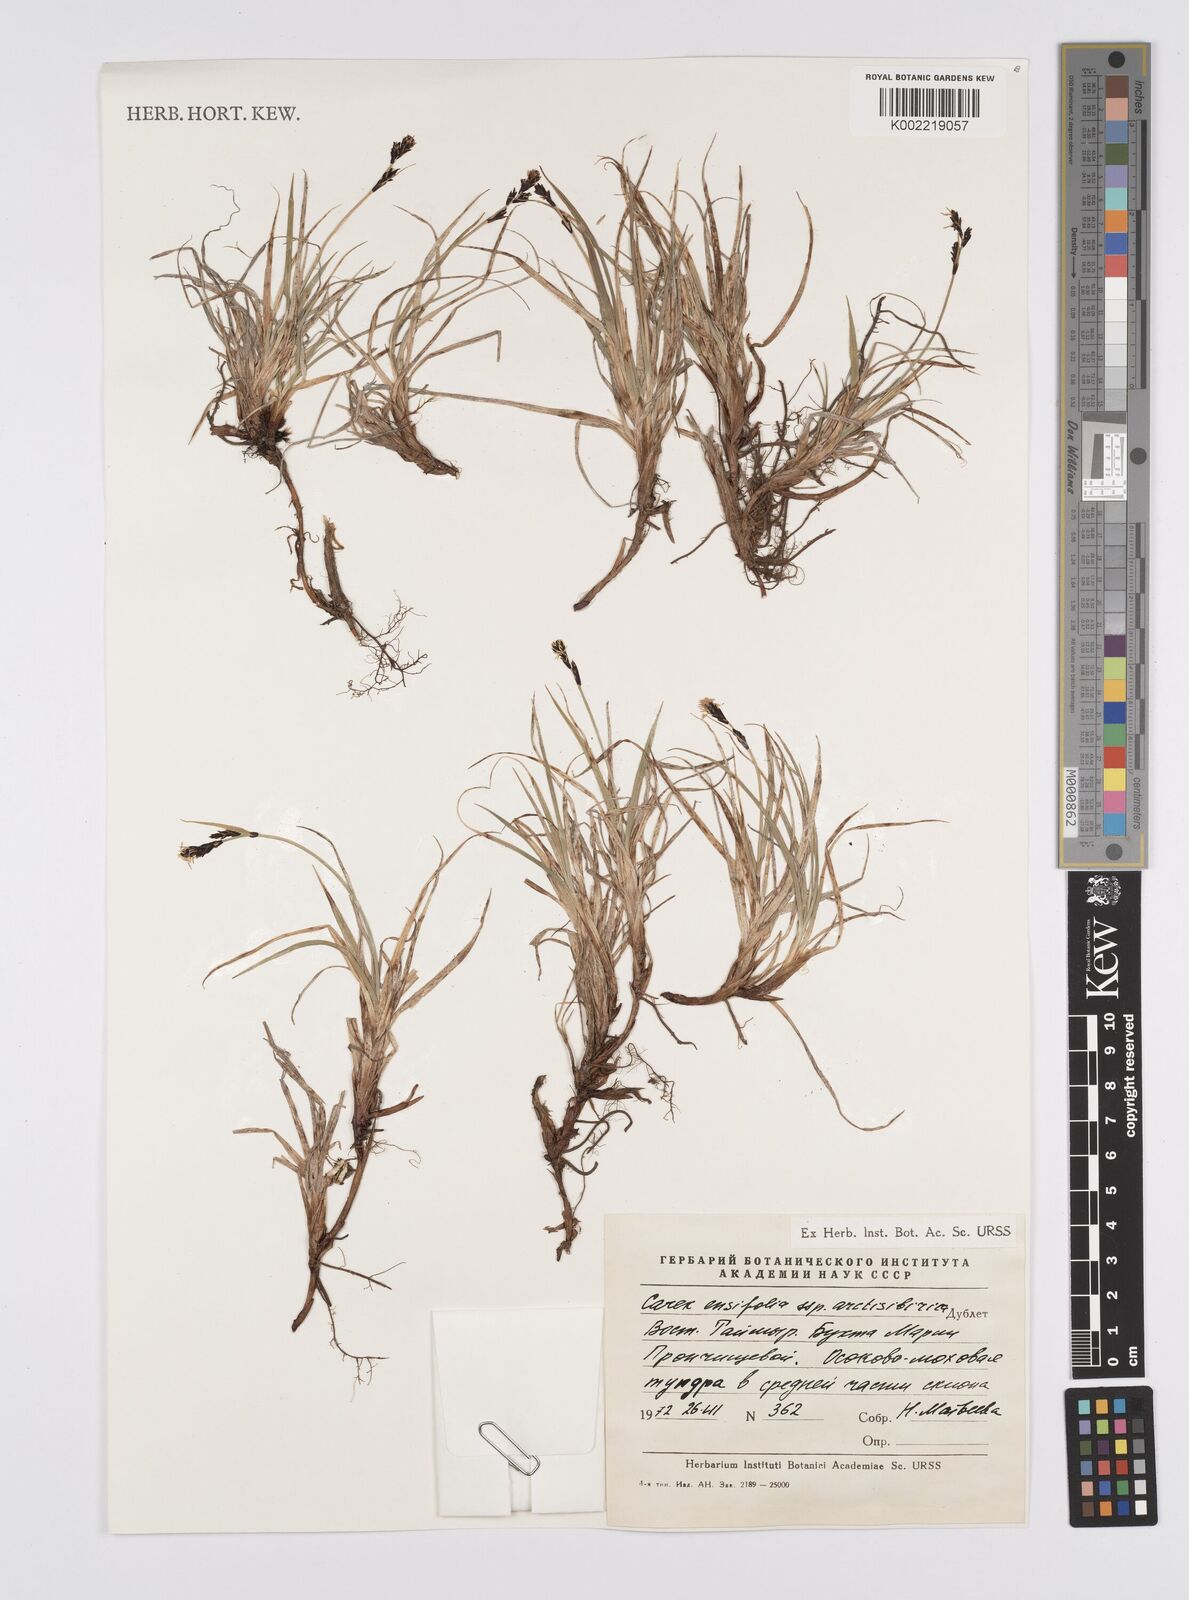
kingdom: Plantae
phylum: Tracheophyta
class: Liliopsida
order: Poales
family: Cyperaceae
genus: Carex
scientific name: Carex bigelowii
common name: Stiff sedge
